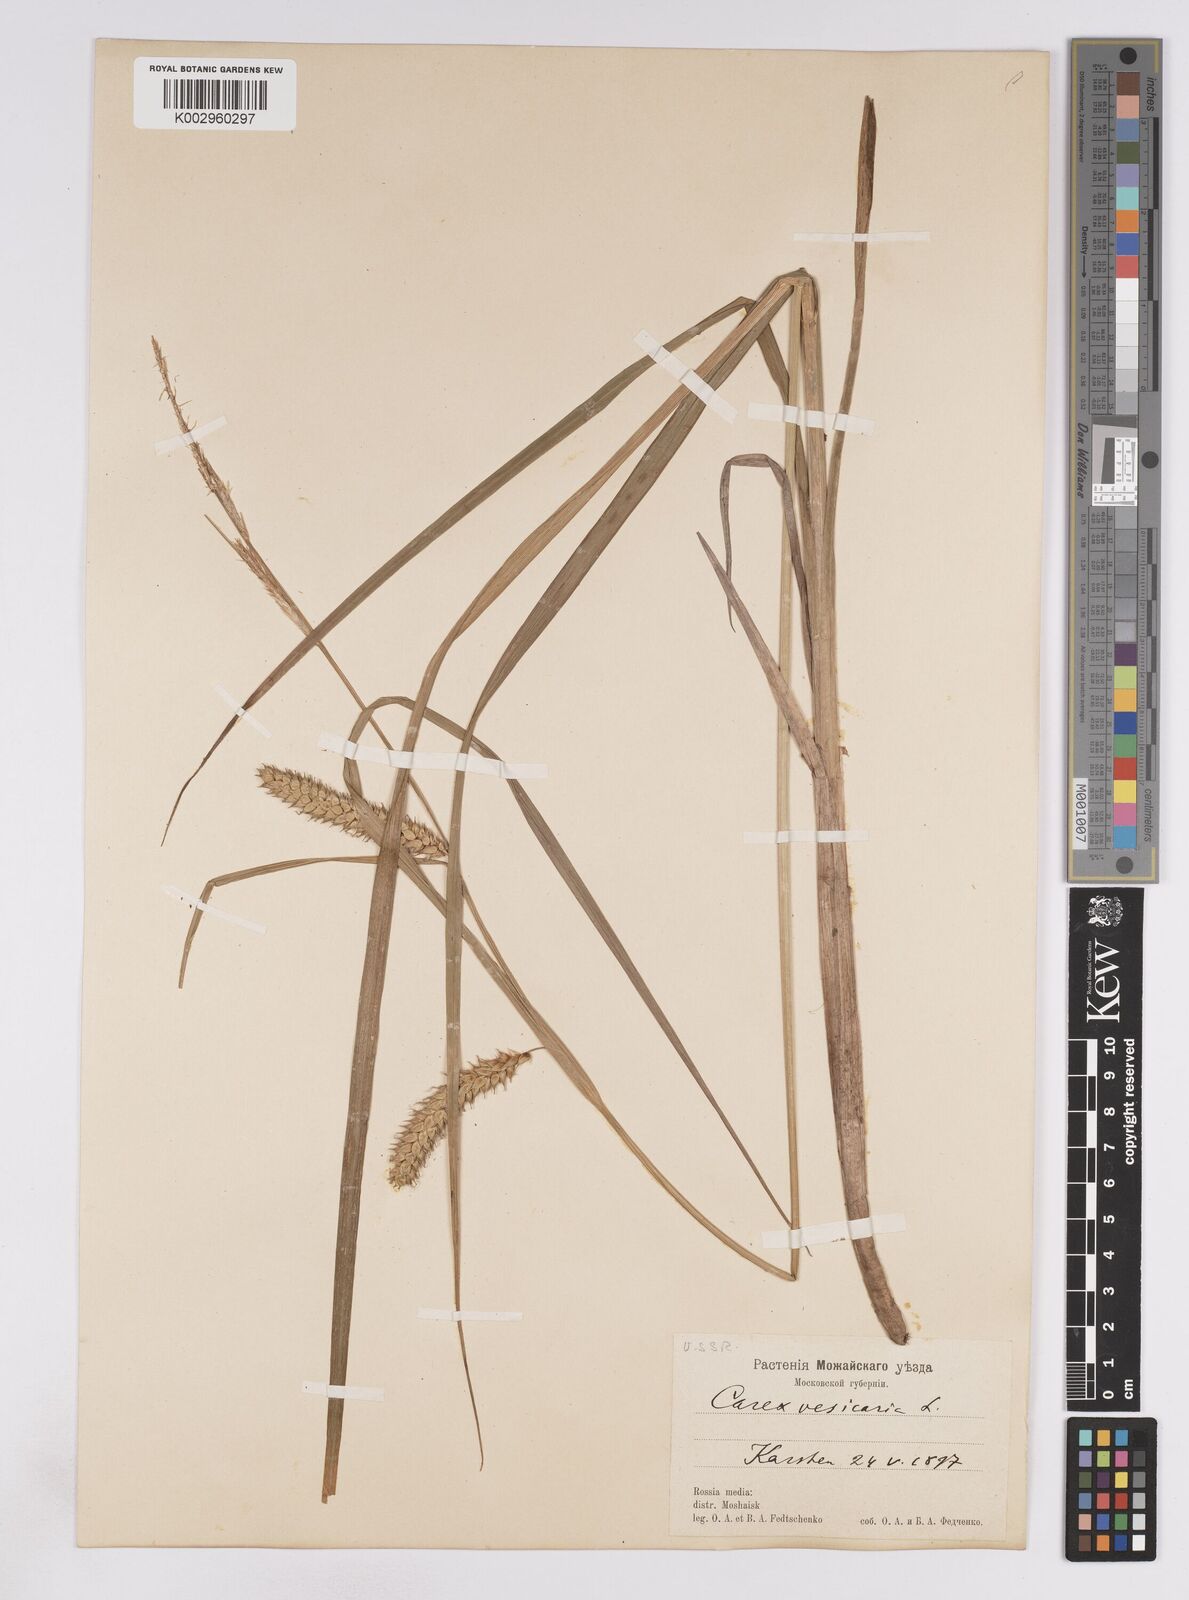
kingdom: Plantae
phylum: Tracheophyta
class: Liliopsida
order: Poales
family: Cyperaceae
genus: Carex
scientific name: Carex vesicaria
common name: Bladder-sedge
